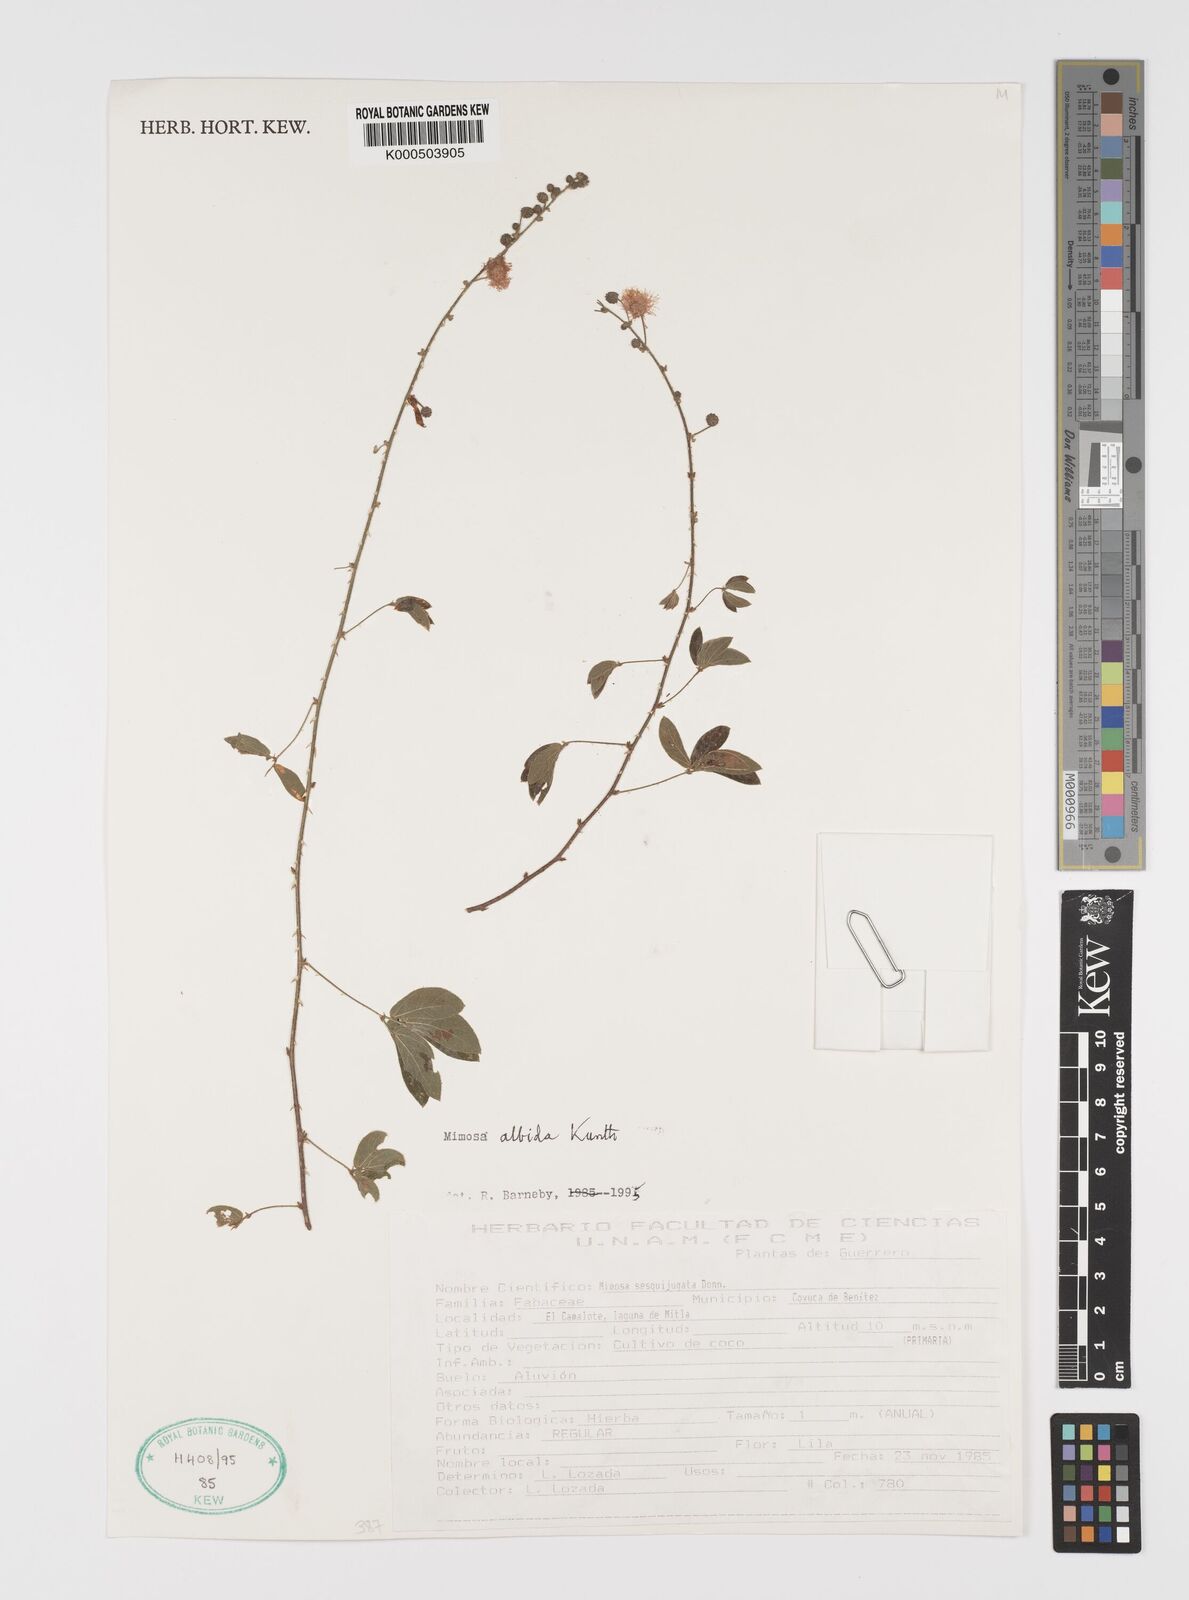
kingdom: Plantae
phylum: Tracheophyta
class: Magnoliopsida
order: Fabales
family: Fabaceae
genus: Mimosa
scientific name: Mimosa albida
